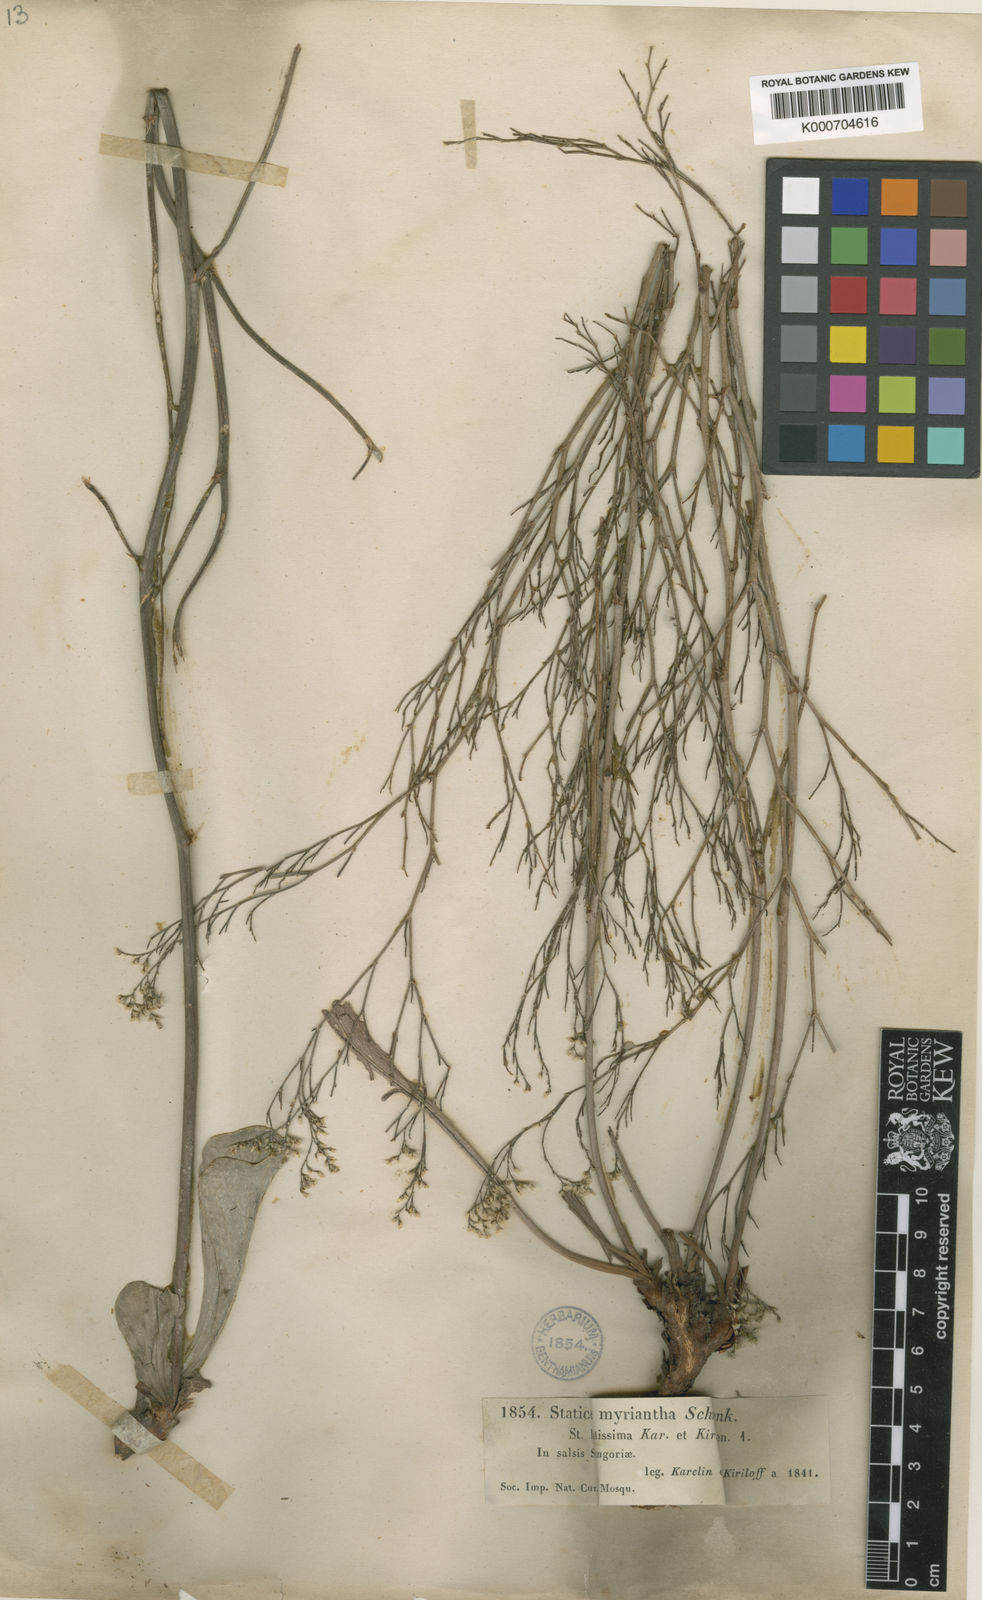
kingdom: Plantae
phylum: Tracheophyta
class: Magnoliopsida
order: Caryophyllales
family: Plumbaginaceae
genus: Limonium
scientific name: Limonium myrianthum
